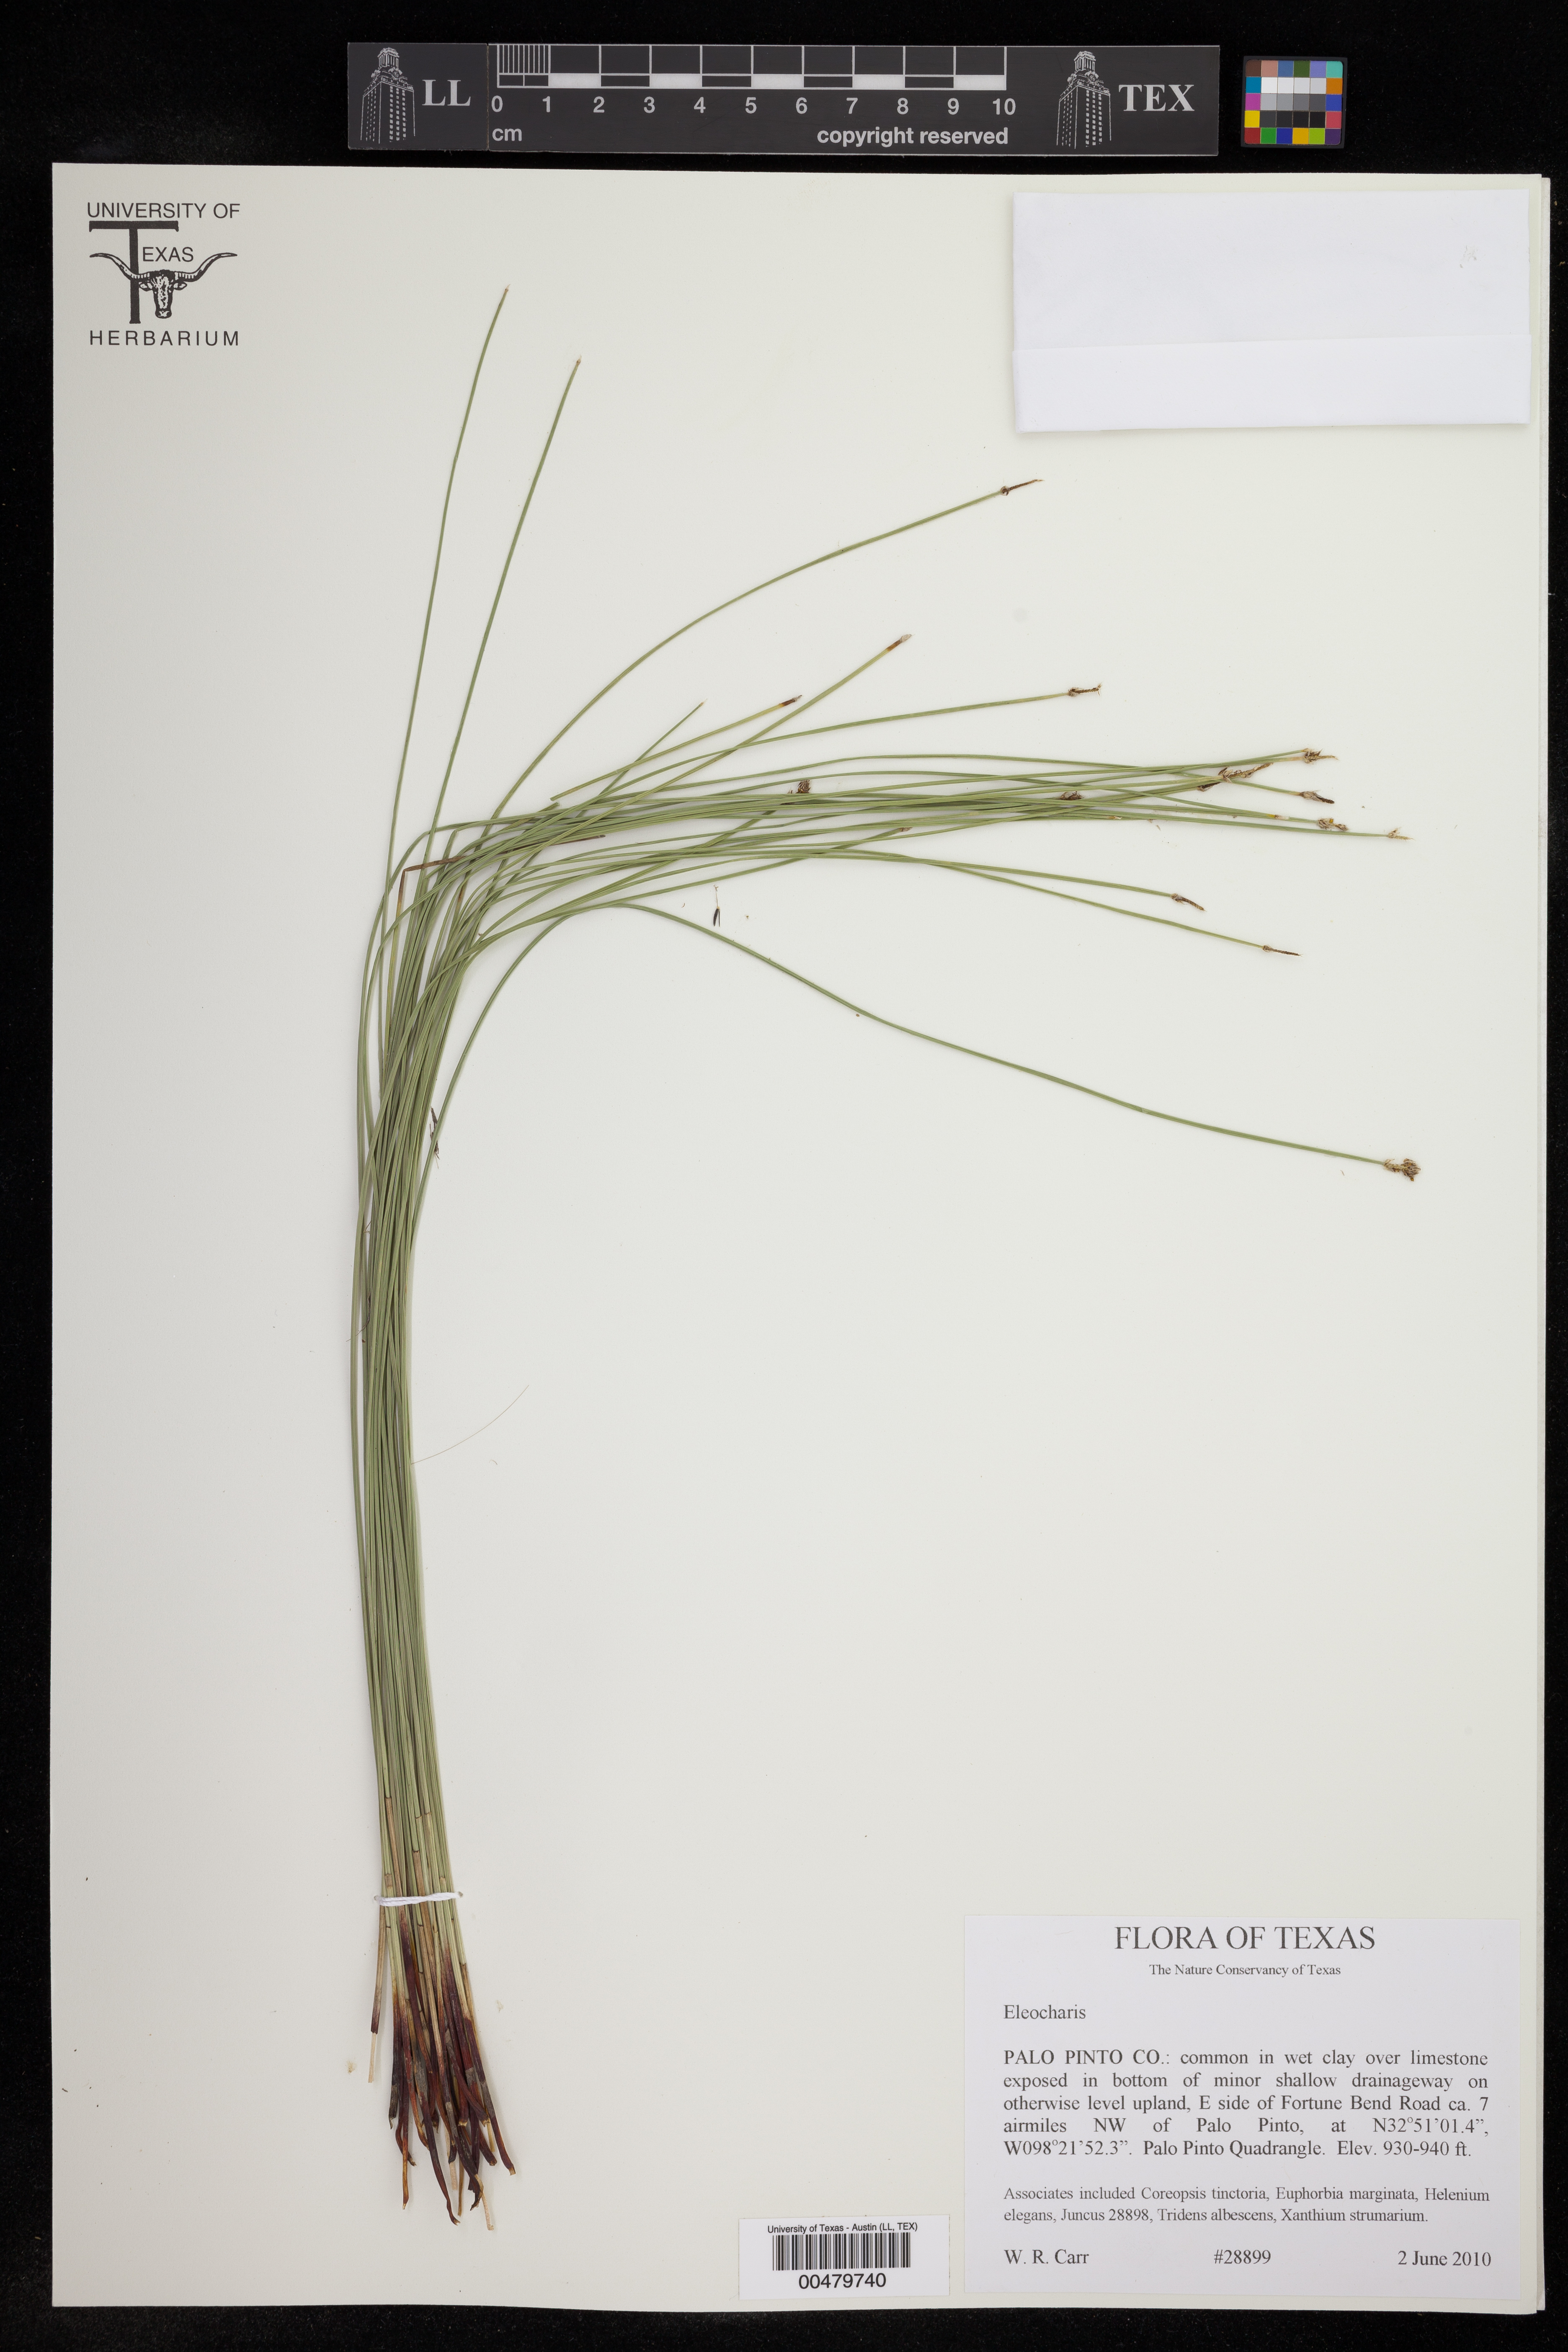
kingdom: Plantae
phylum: Tracheophyta
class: Liliopsida
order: Poales
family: Cyperaceae
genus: Eleocharis
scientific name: Eleocharis
